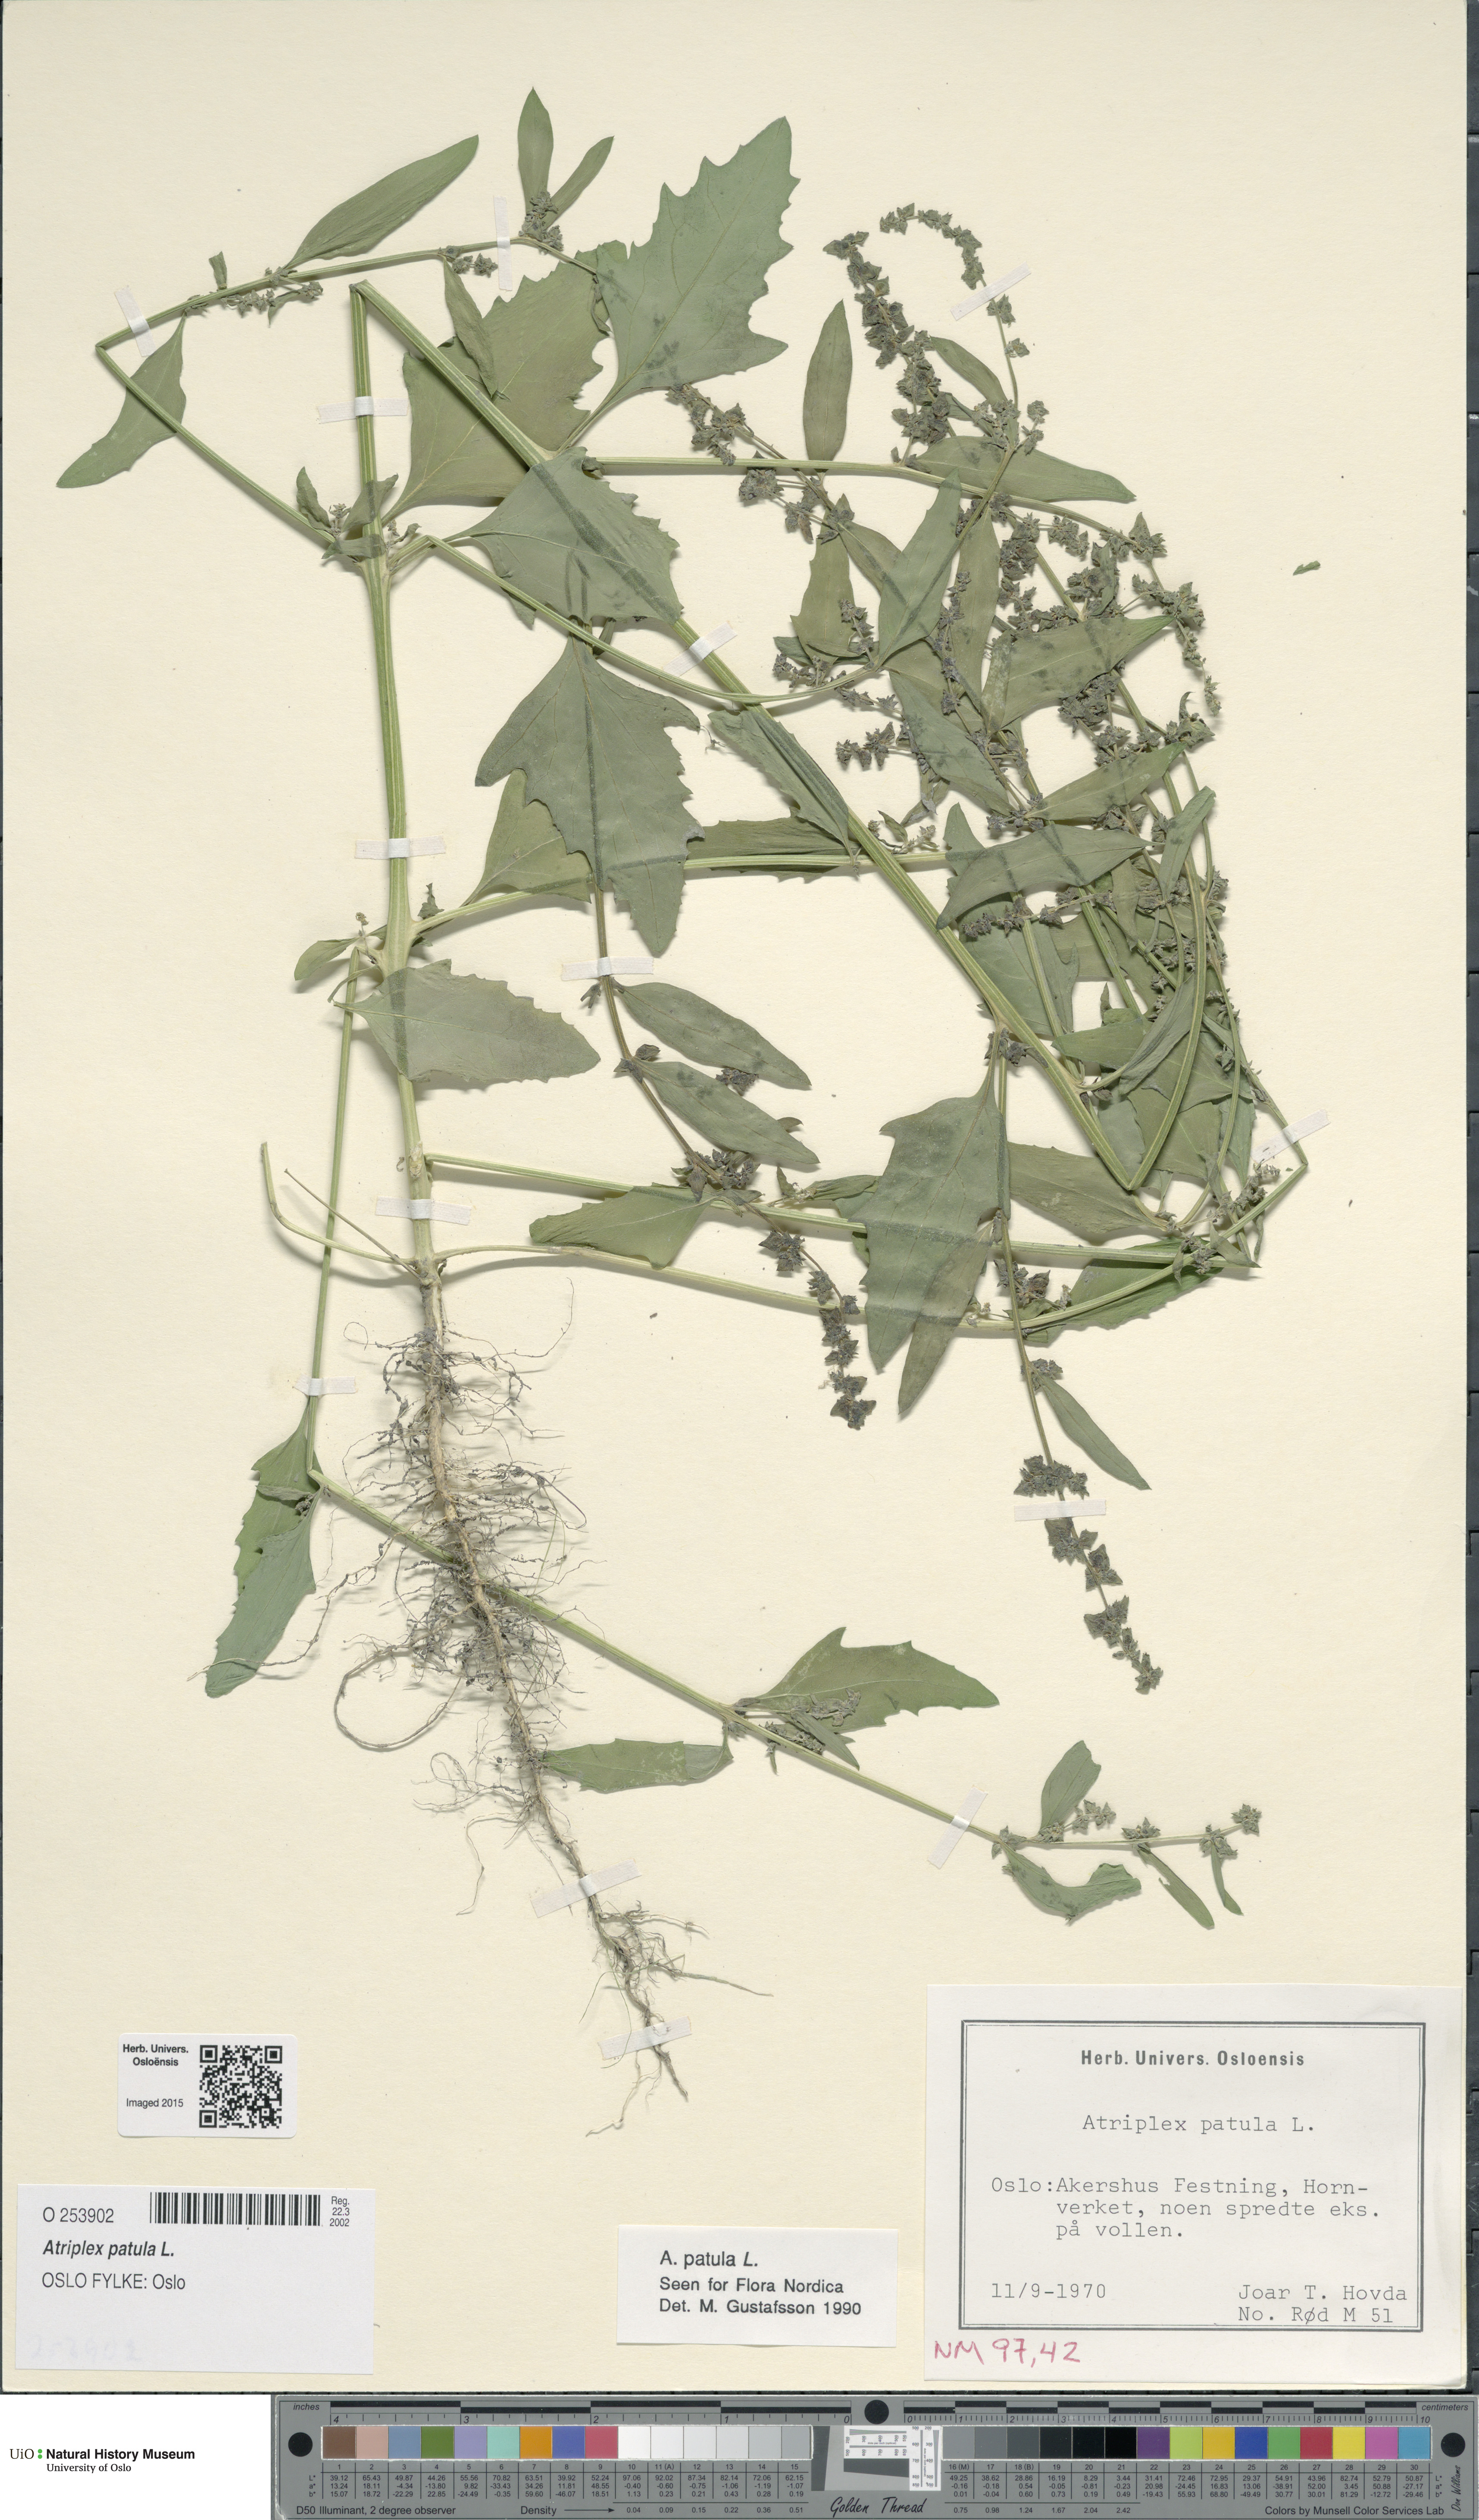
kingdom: Plantae
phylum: Tracheophyta
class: Magnoliopsida
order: Caryophyllales
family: Amaranthaceae
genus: Atriplex
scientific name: Atriplex patula
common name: Common orache
